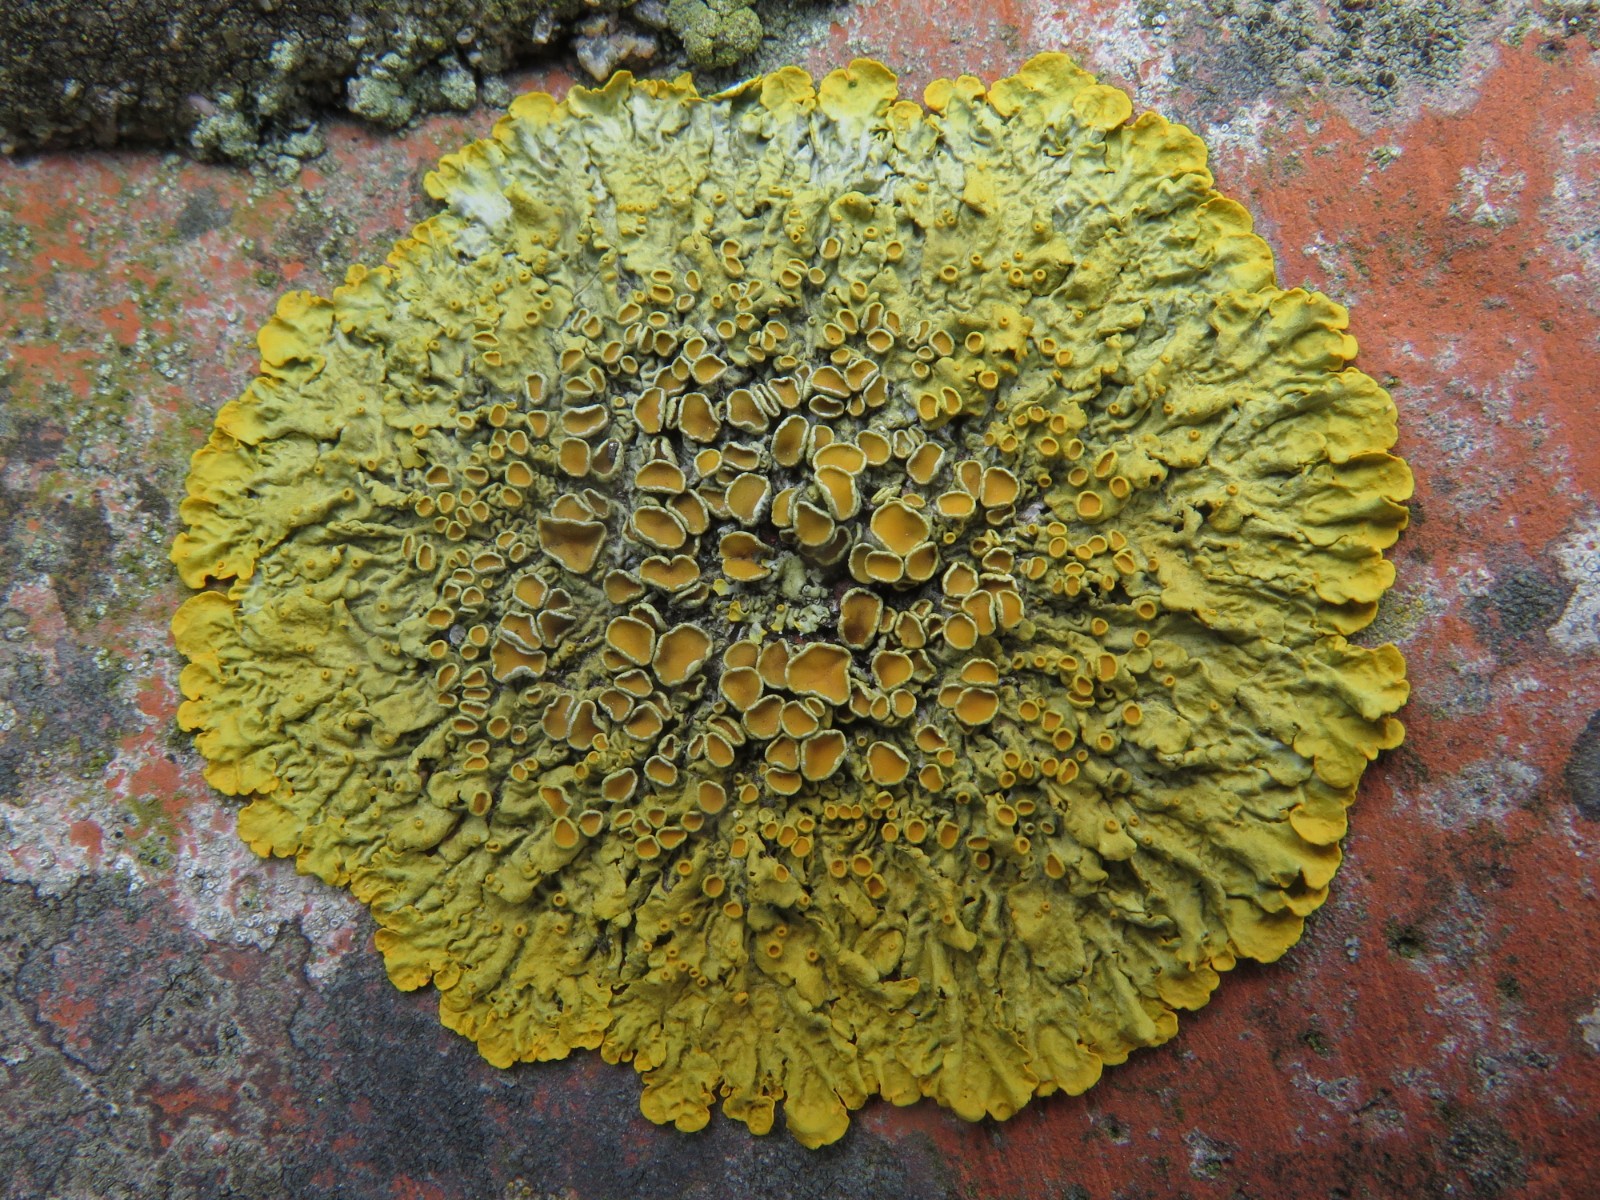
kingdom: Fungi
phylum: Ascomycota
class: Lecanoromycetes
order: Teloschistales
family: Teloschistaceae
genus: Xanthoria
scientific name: Xanthoria parietina
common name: almindelig væggelav
